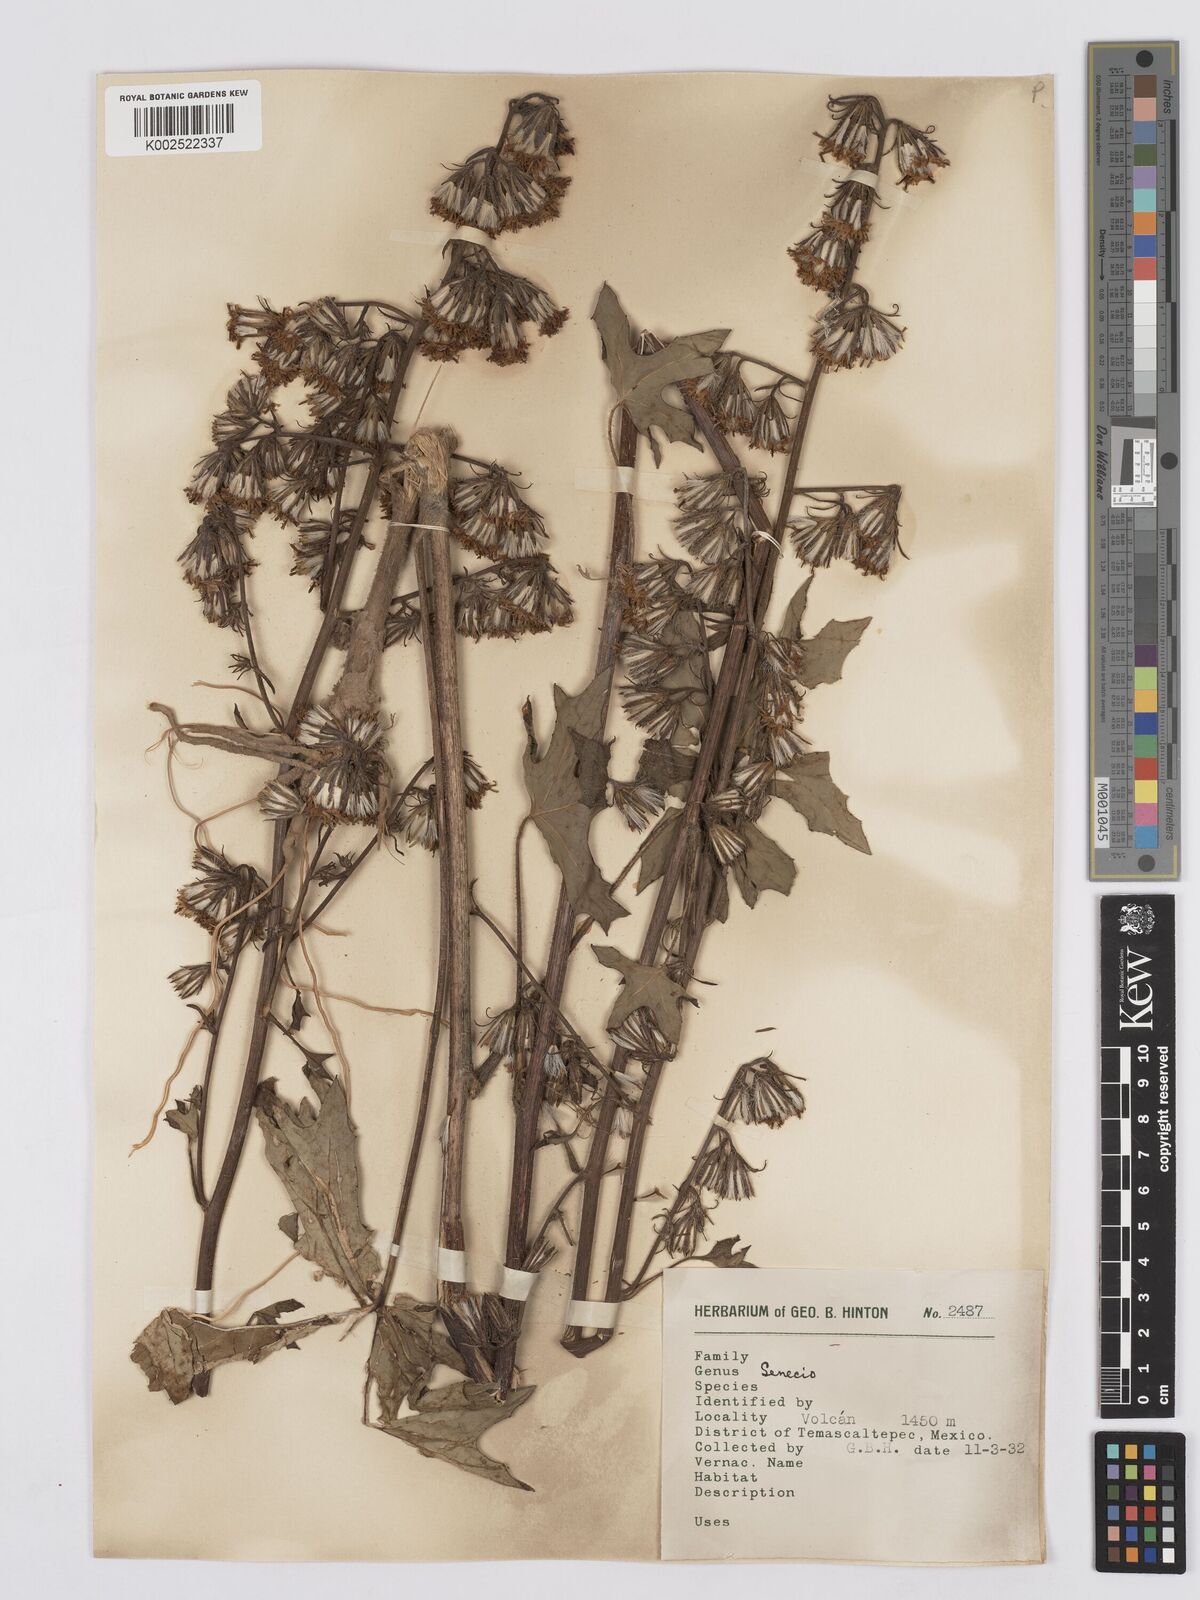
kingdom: Plantae
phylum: Tracheophyta
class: Magnoliopsida
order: Asterales
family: Asteraceae
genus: Digitacalia
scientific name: Digitacalia napeifolia
